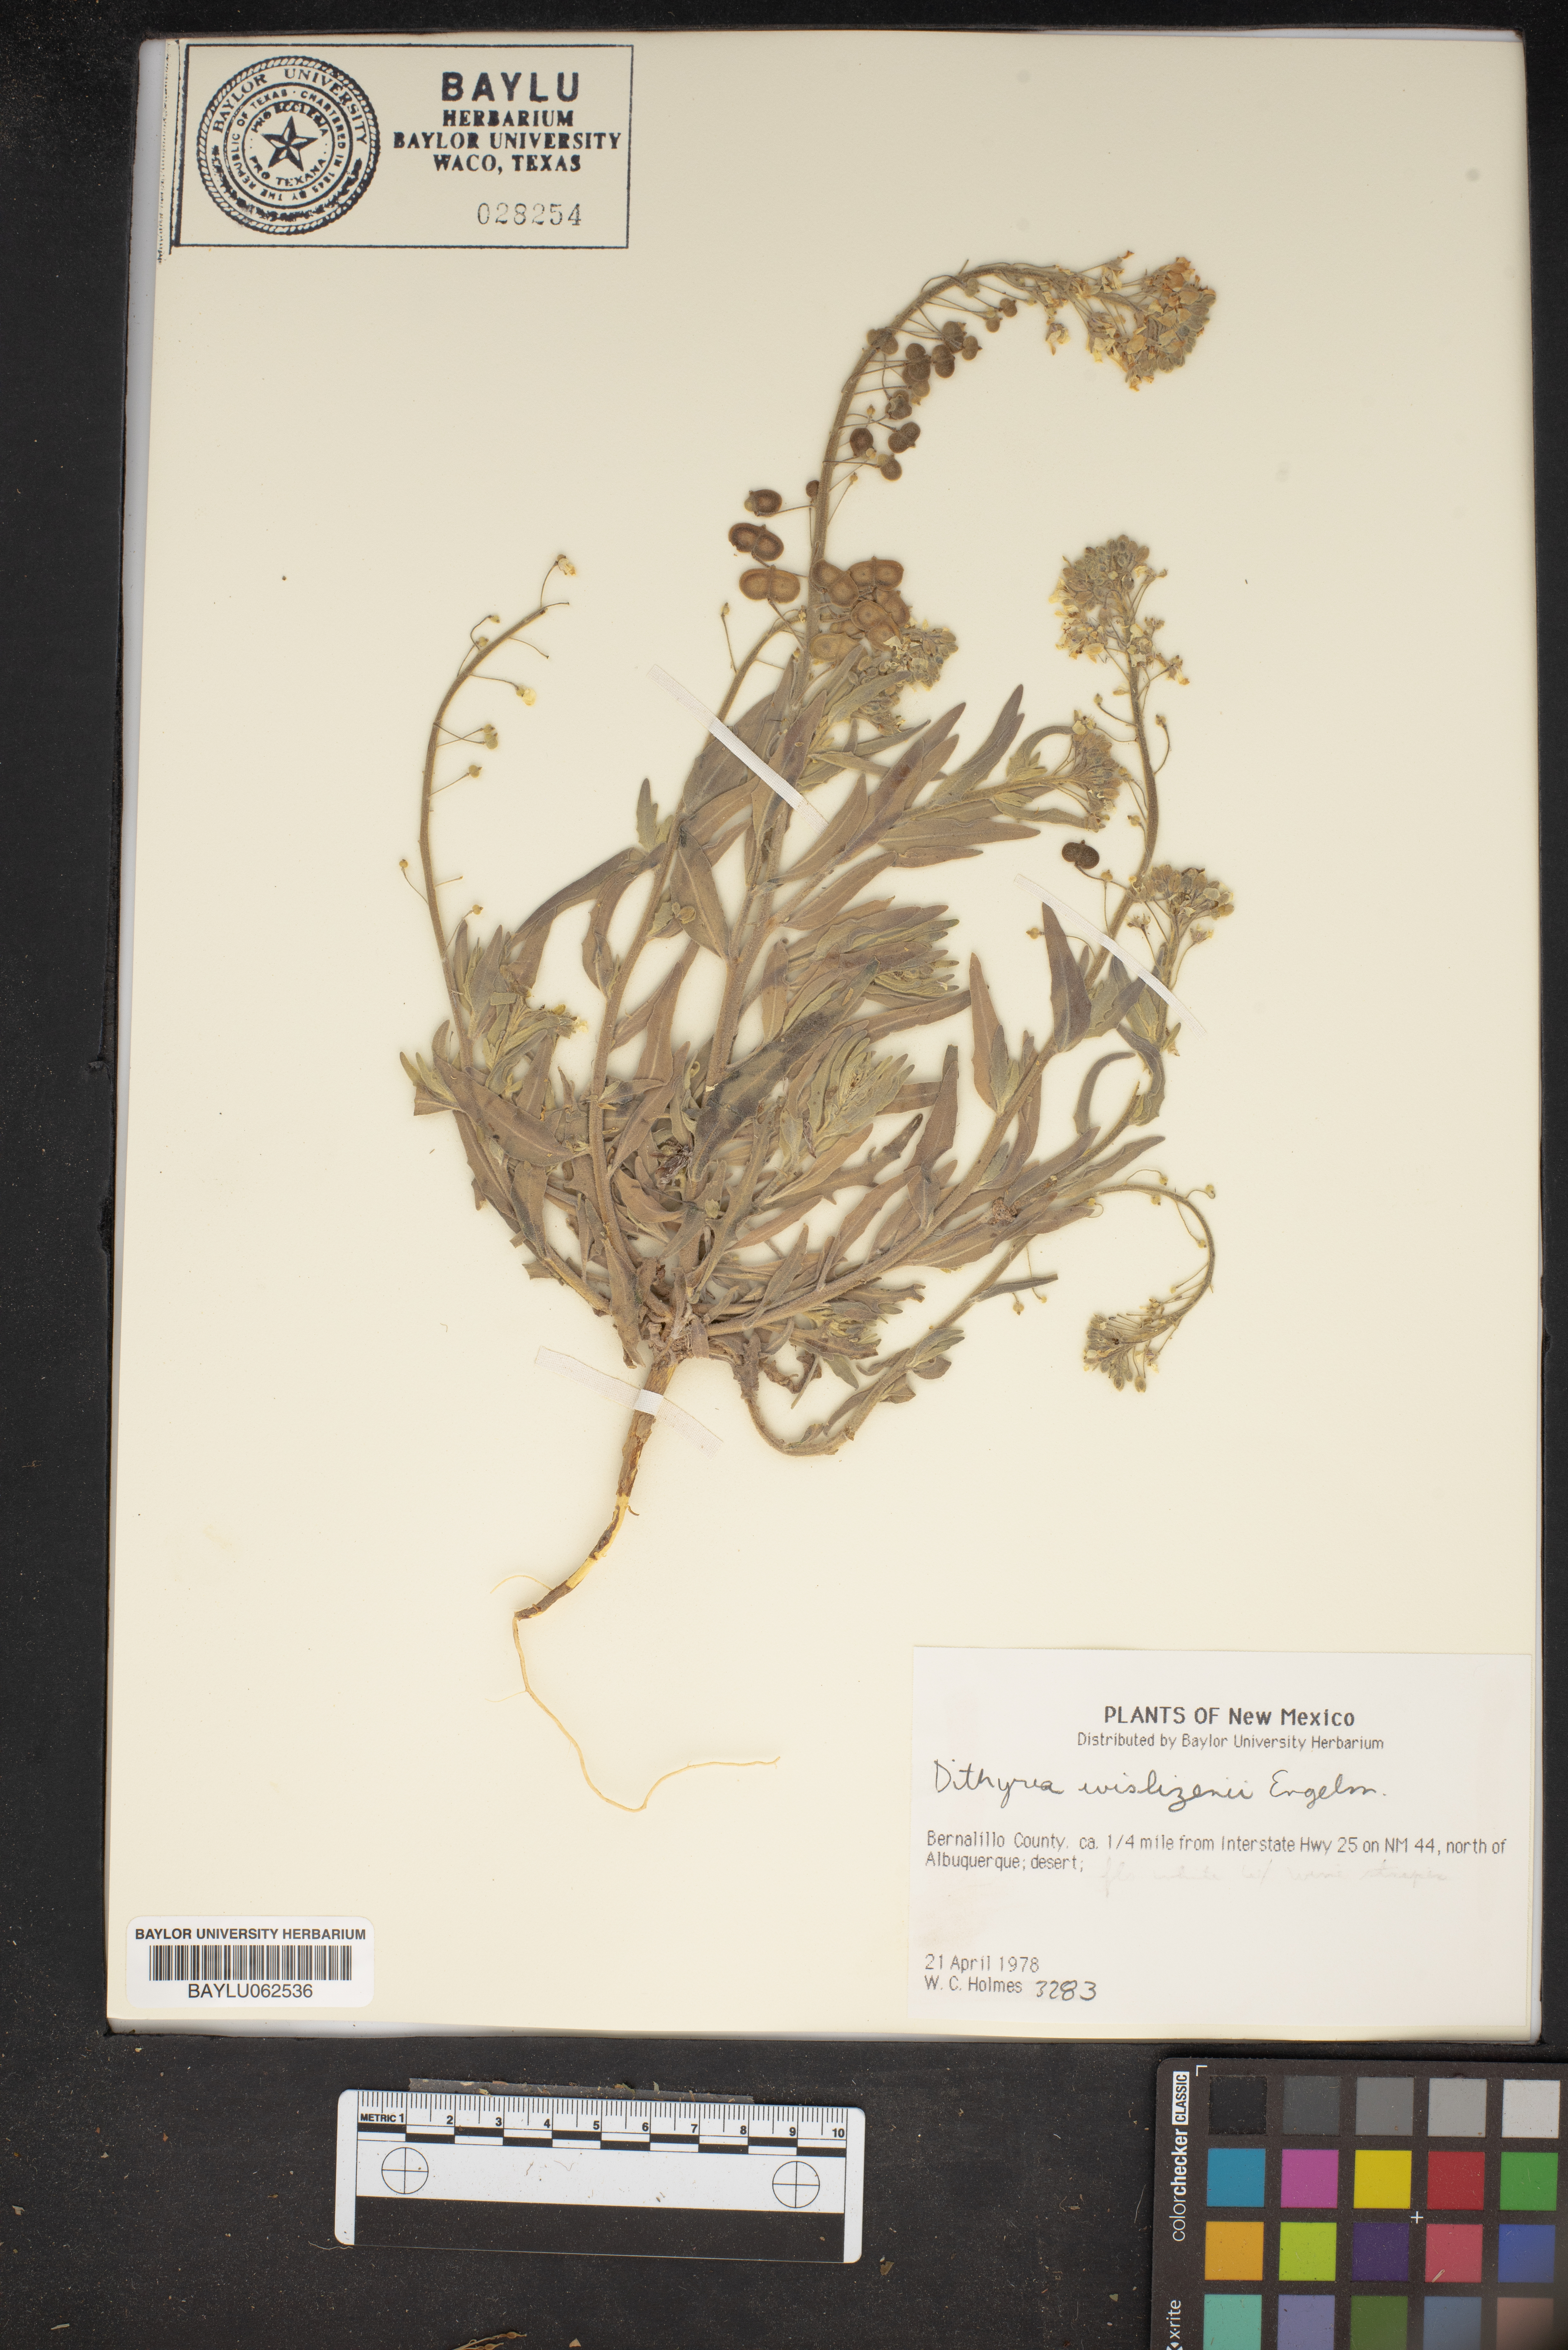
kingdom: Plantae
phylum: Tracheophyta
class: Magnoliopsida
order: Brassicales
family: Brassicaceae
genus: Dimorphocarpa
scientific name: Dimorphocarpa wislizenii
